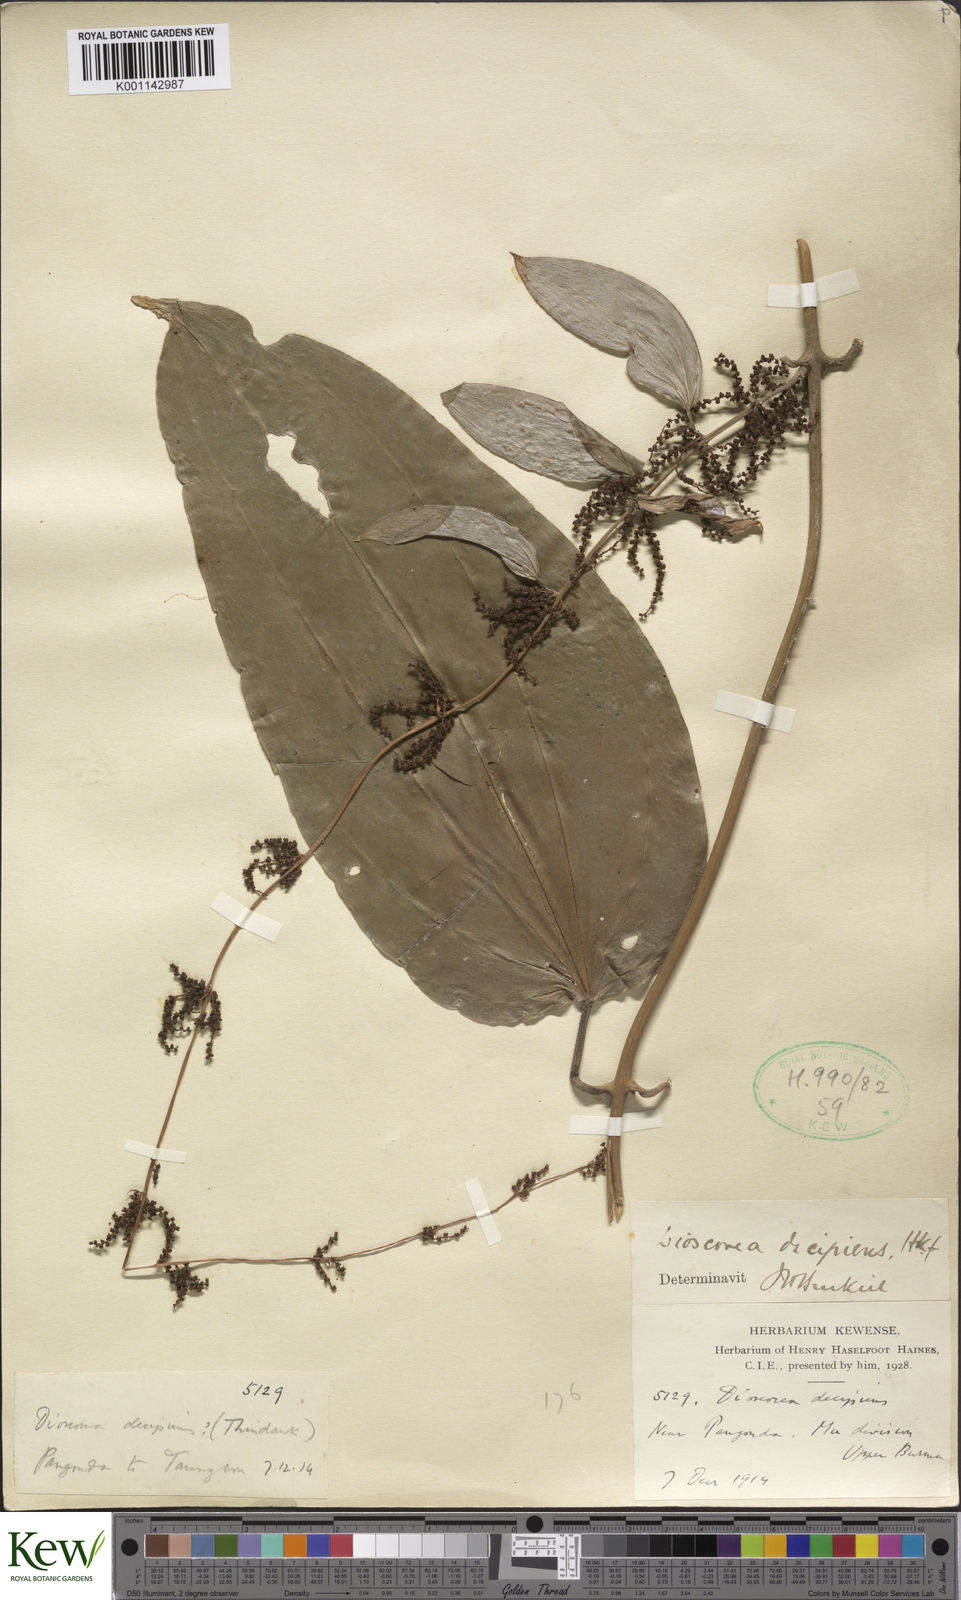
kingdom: Plantae
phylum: Tracheophyta
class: Liliopsida
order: Dioscoreales
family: Dioscoreaceae
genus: Dioscorea
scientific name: Dioscorea decipiens
